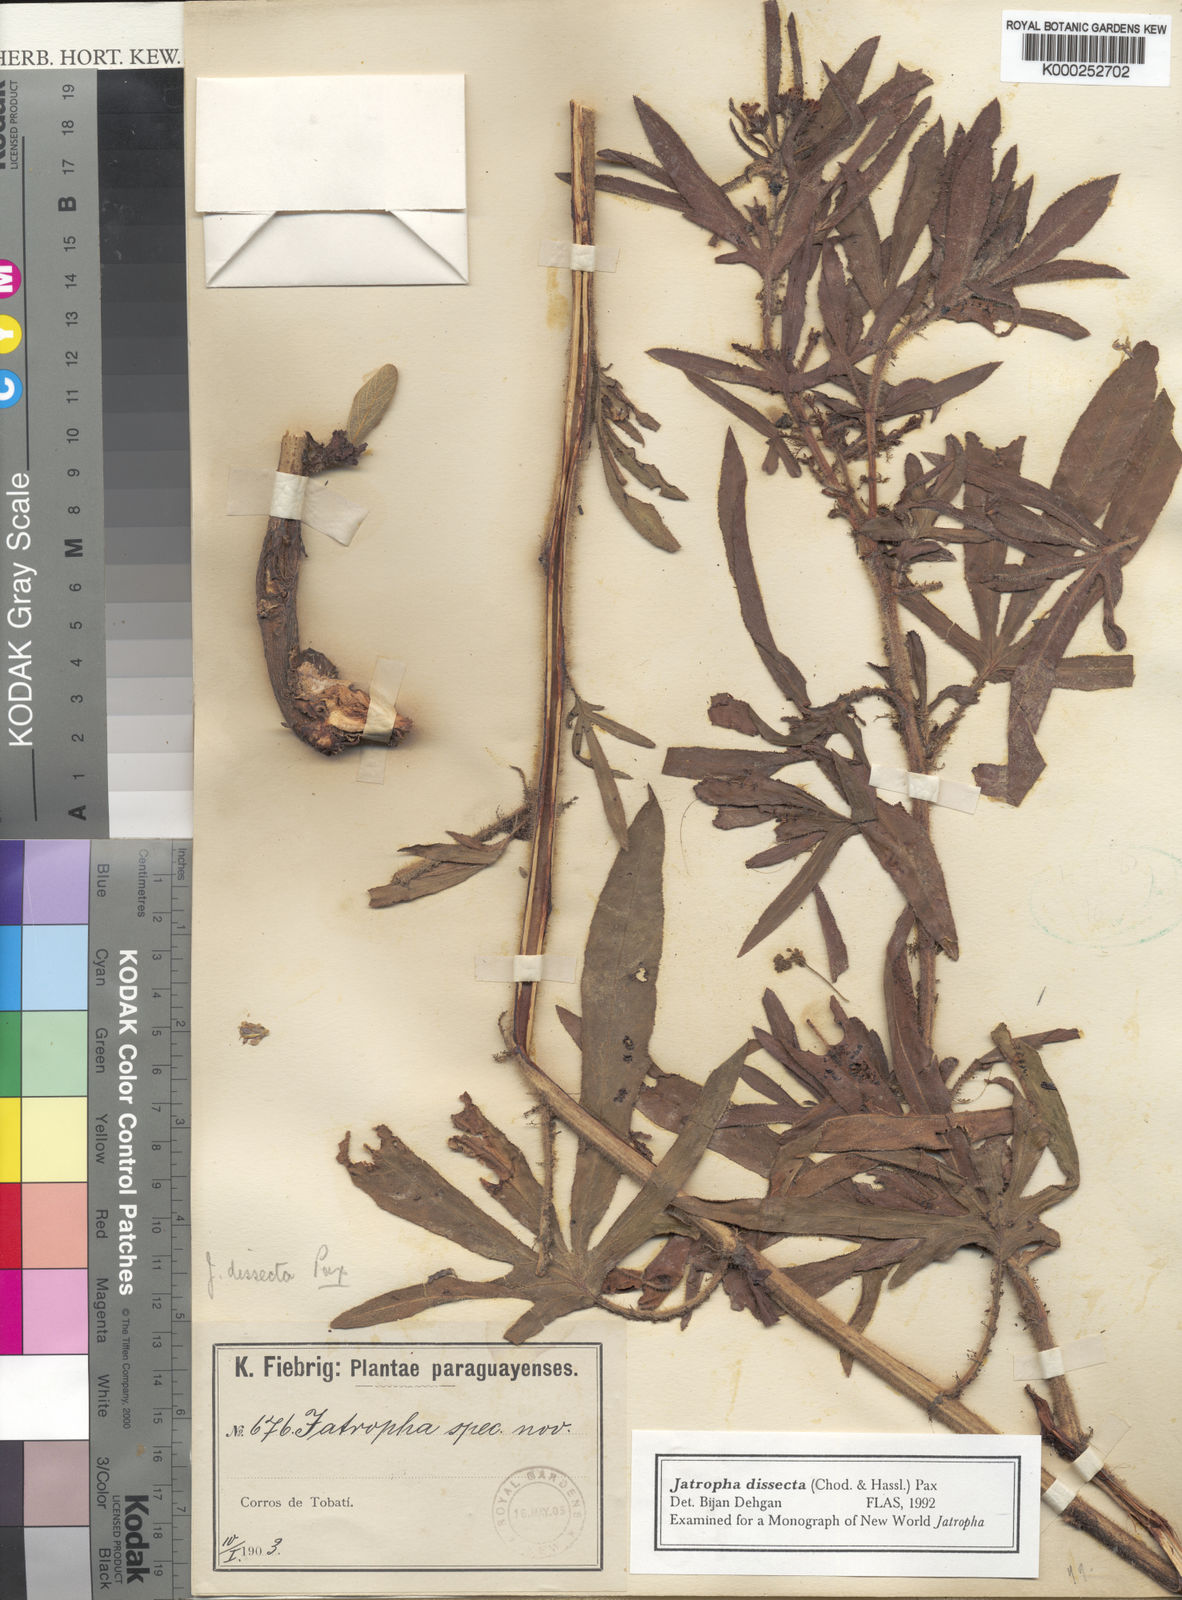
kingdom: Plantae
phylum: Tracheophyta
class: Magnoliopsida
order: Malpighiales
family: Euphorbiaceae
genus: Jatropha
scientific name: Jatropha dissecta
